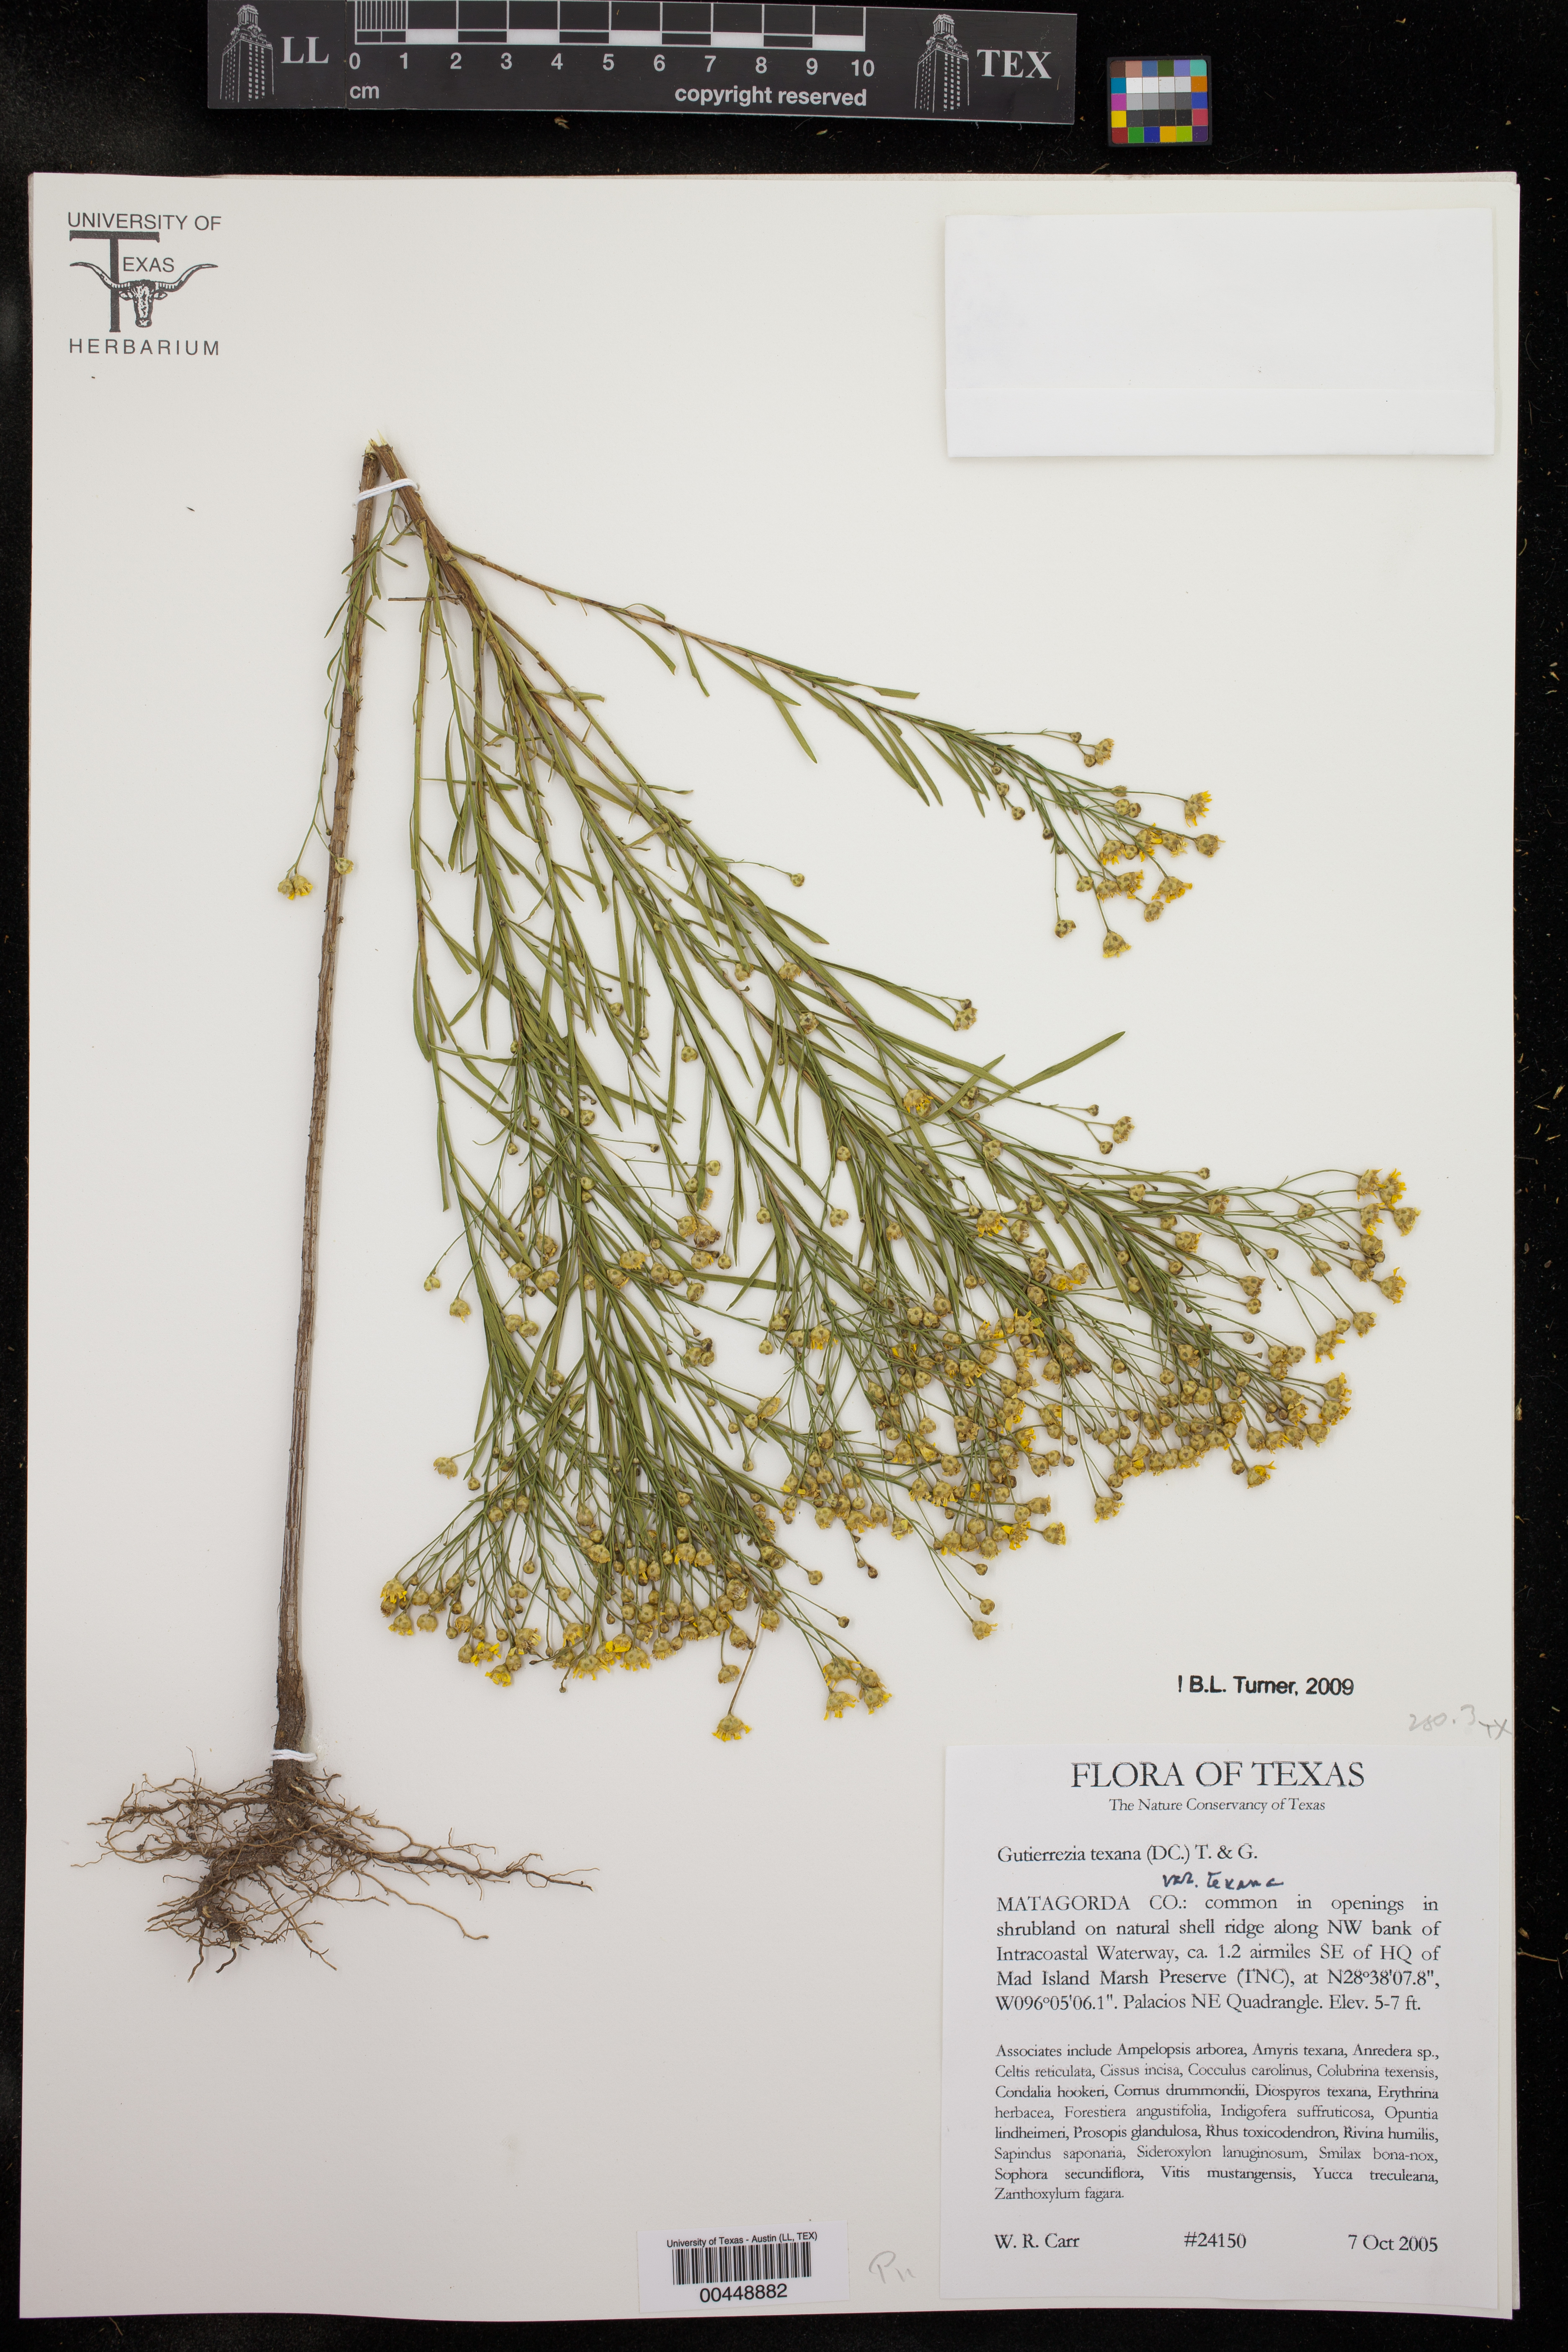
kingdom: Plantae
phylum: Tracheophyta
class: Magnoliopsida
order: Asterales
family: Asteraceae
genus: Gutierrezia
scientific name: Gutierrezia texana
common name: Texas snakeweed
